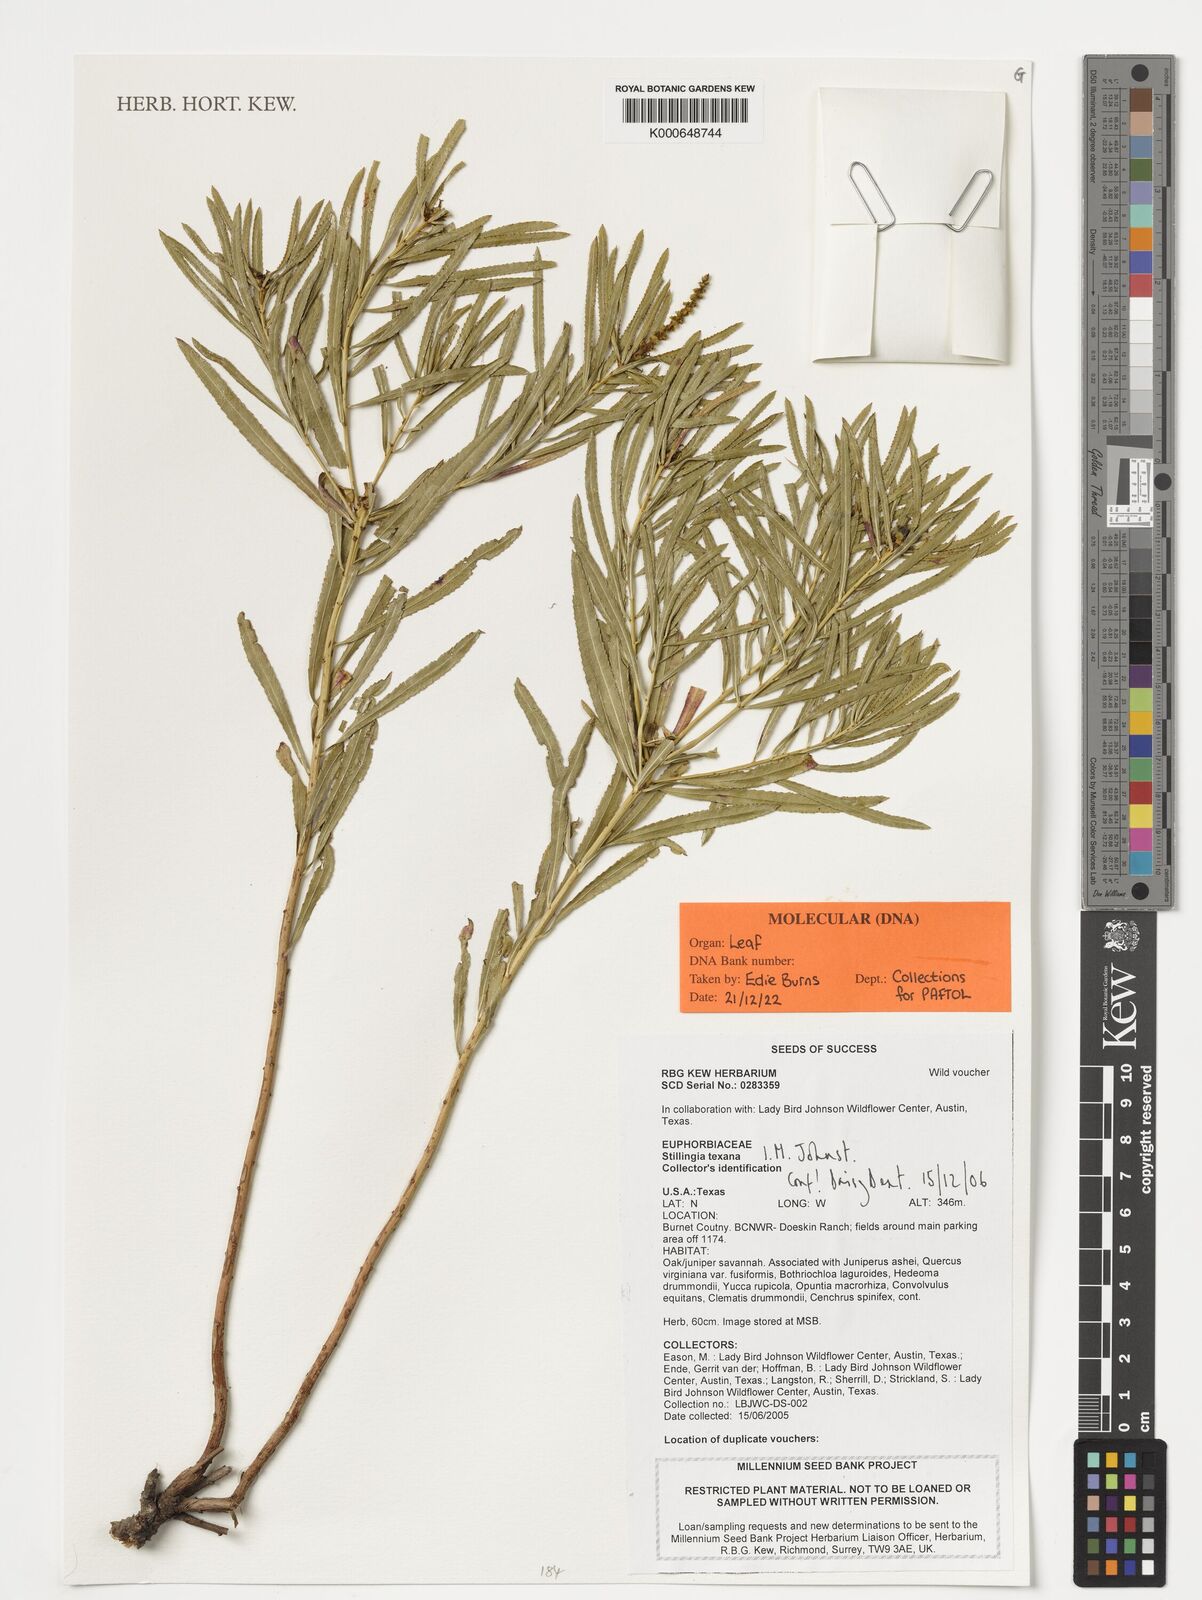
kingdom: Plantae
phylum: Tracheophyta
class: Magnoliopsida
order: Malpighiales
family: Euphorbiaceae
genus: Stillingia
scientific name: Stillingia texana
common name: Texas stillingia
